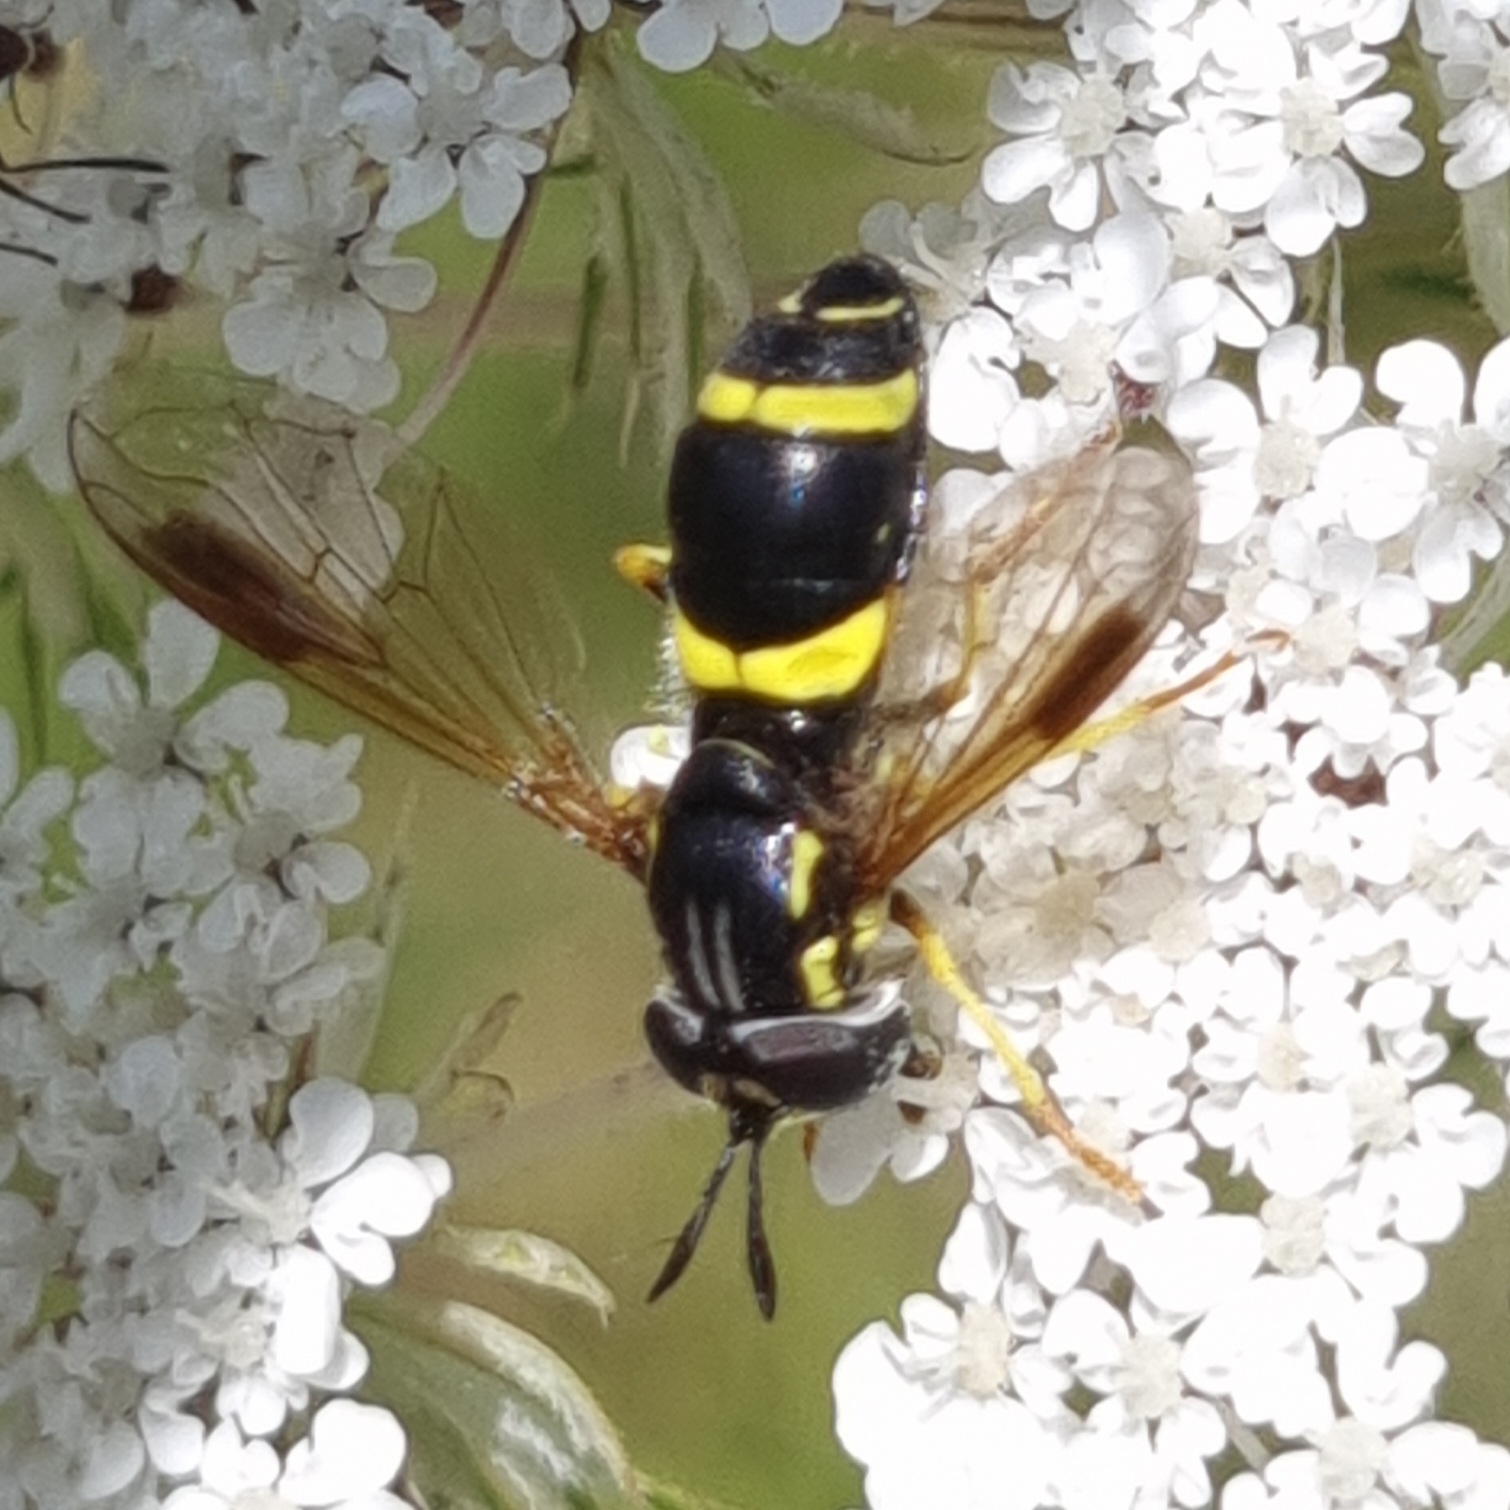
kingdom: Animalia
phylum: Arthropoda
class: Insecta
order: Diptera
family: Syrphidae
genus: Chrysotoxum
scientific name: Chrysotoxum bicincta
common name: Tobåndet hvepsesvirreflue
